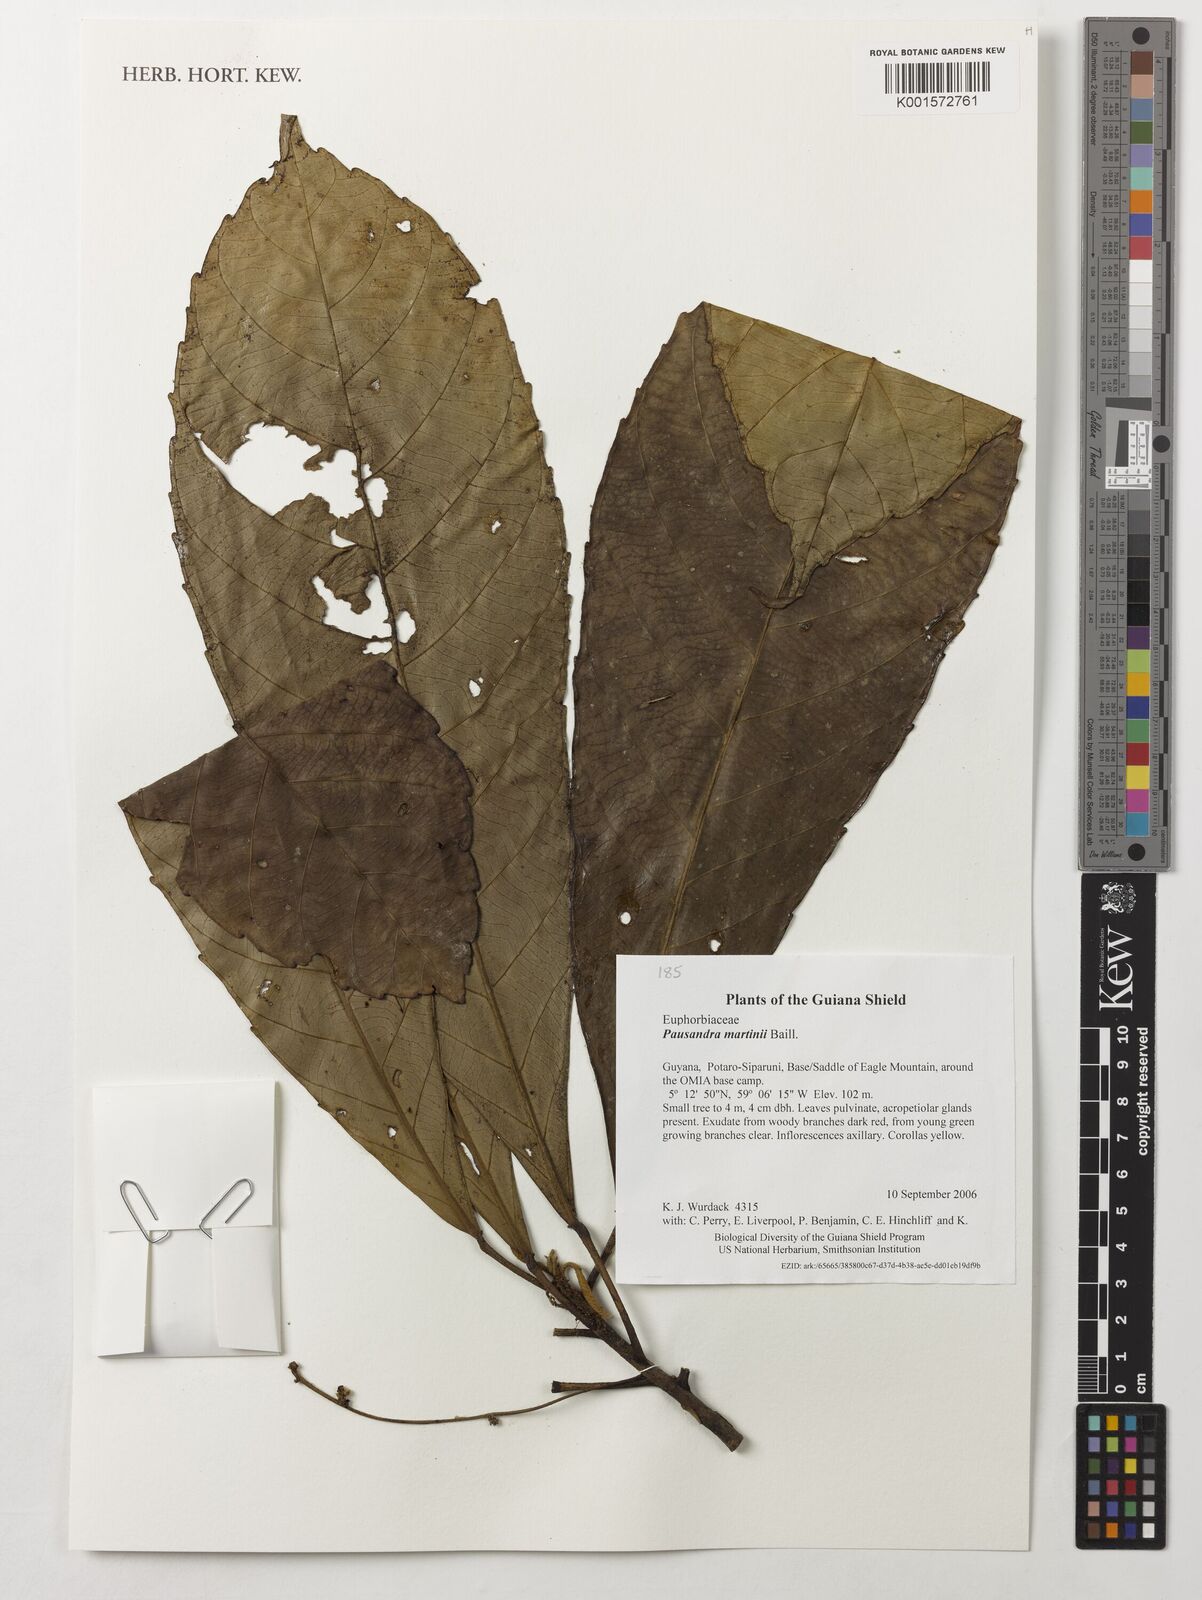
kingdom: Plantae
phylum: Tracheophyta
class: Magnoliopsida
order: Malpighiales
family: Euphorbiaceae
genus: Pausandra
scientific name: Pausandra martini
